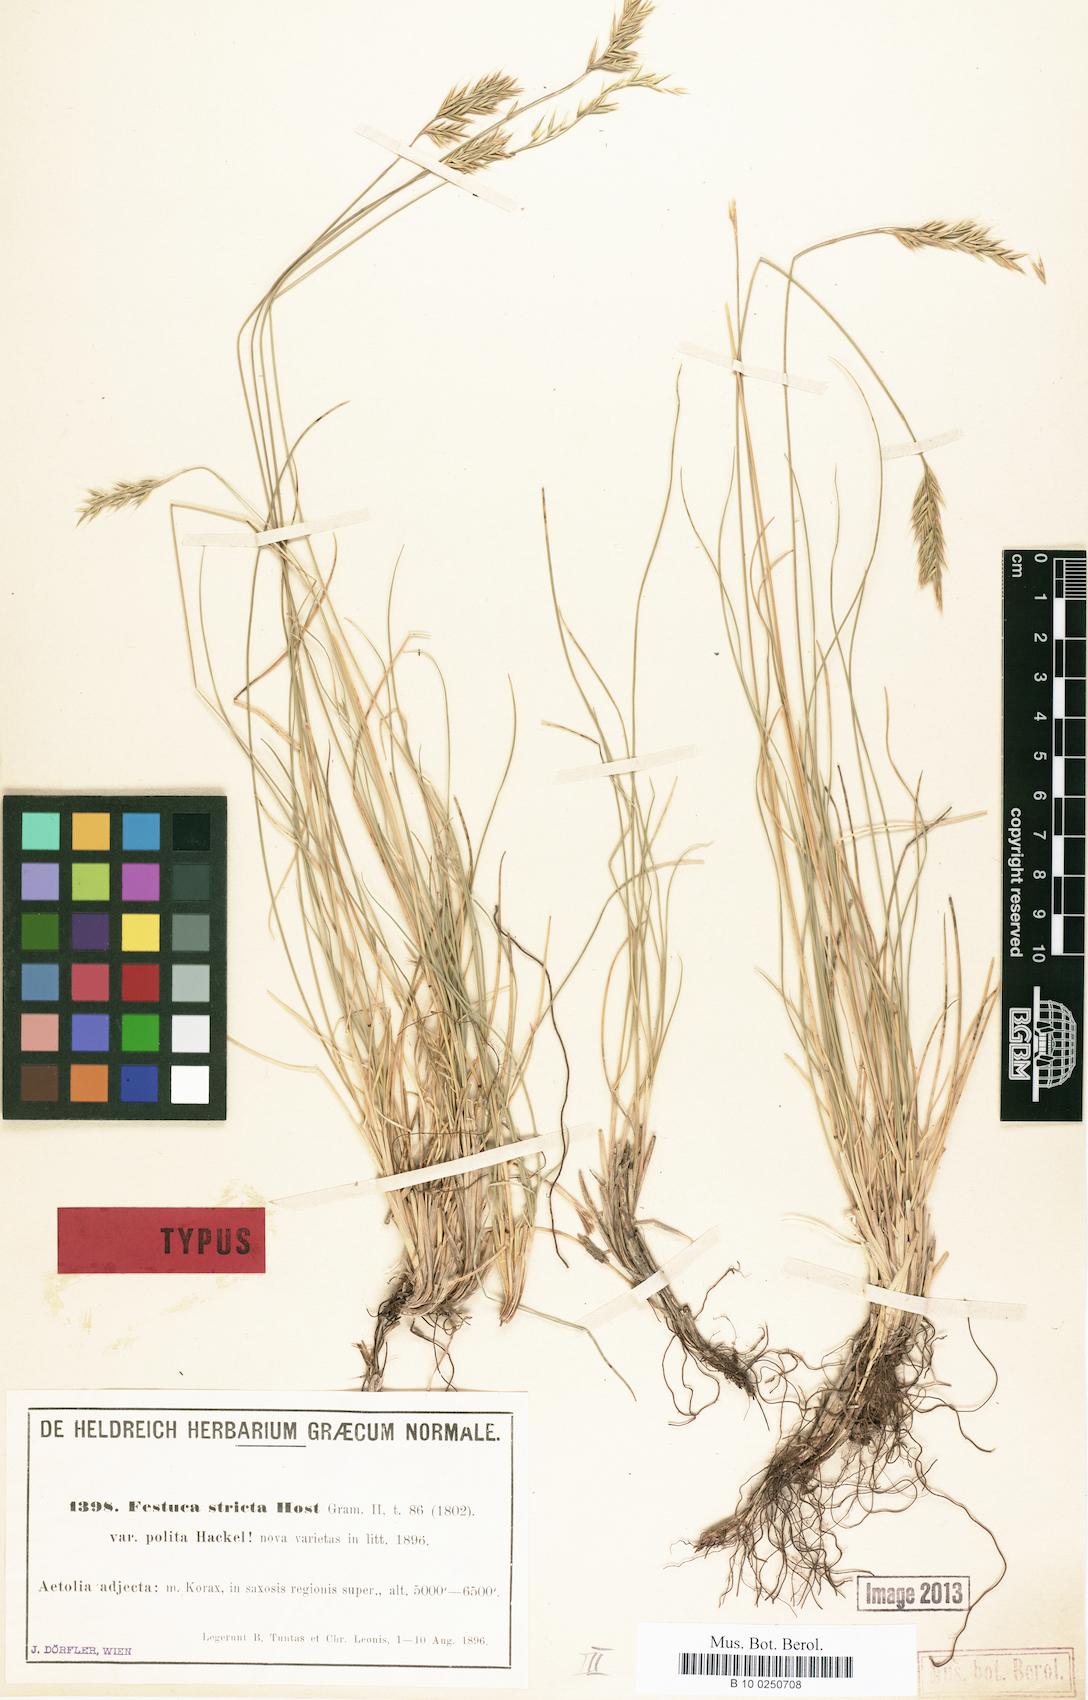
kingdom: Plantae
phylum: Tracheophyta
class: Liliopsida
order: Poales
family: Poaceae
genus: Festuca
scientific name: Festuca polita
